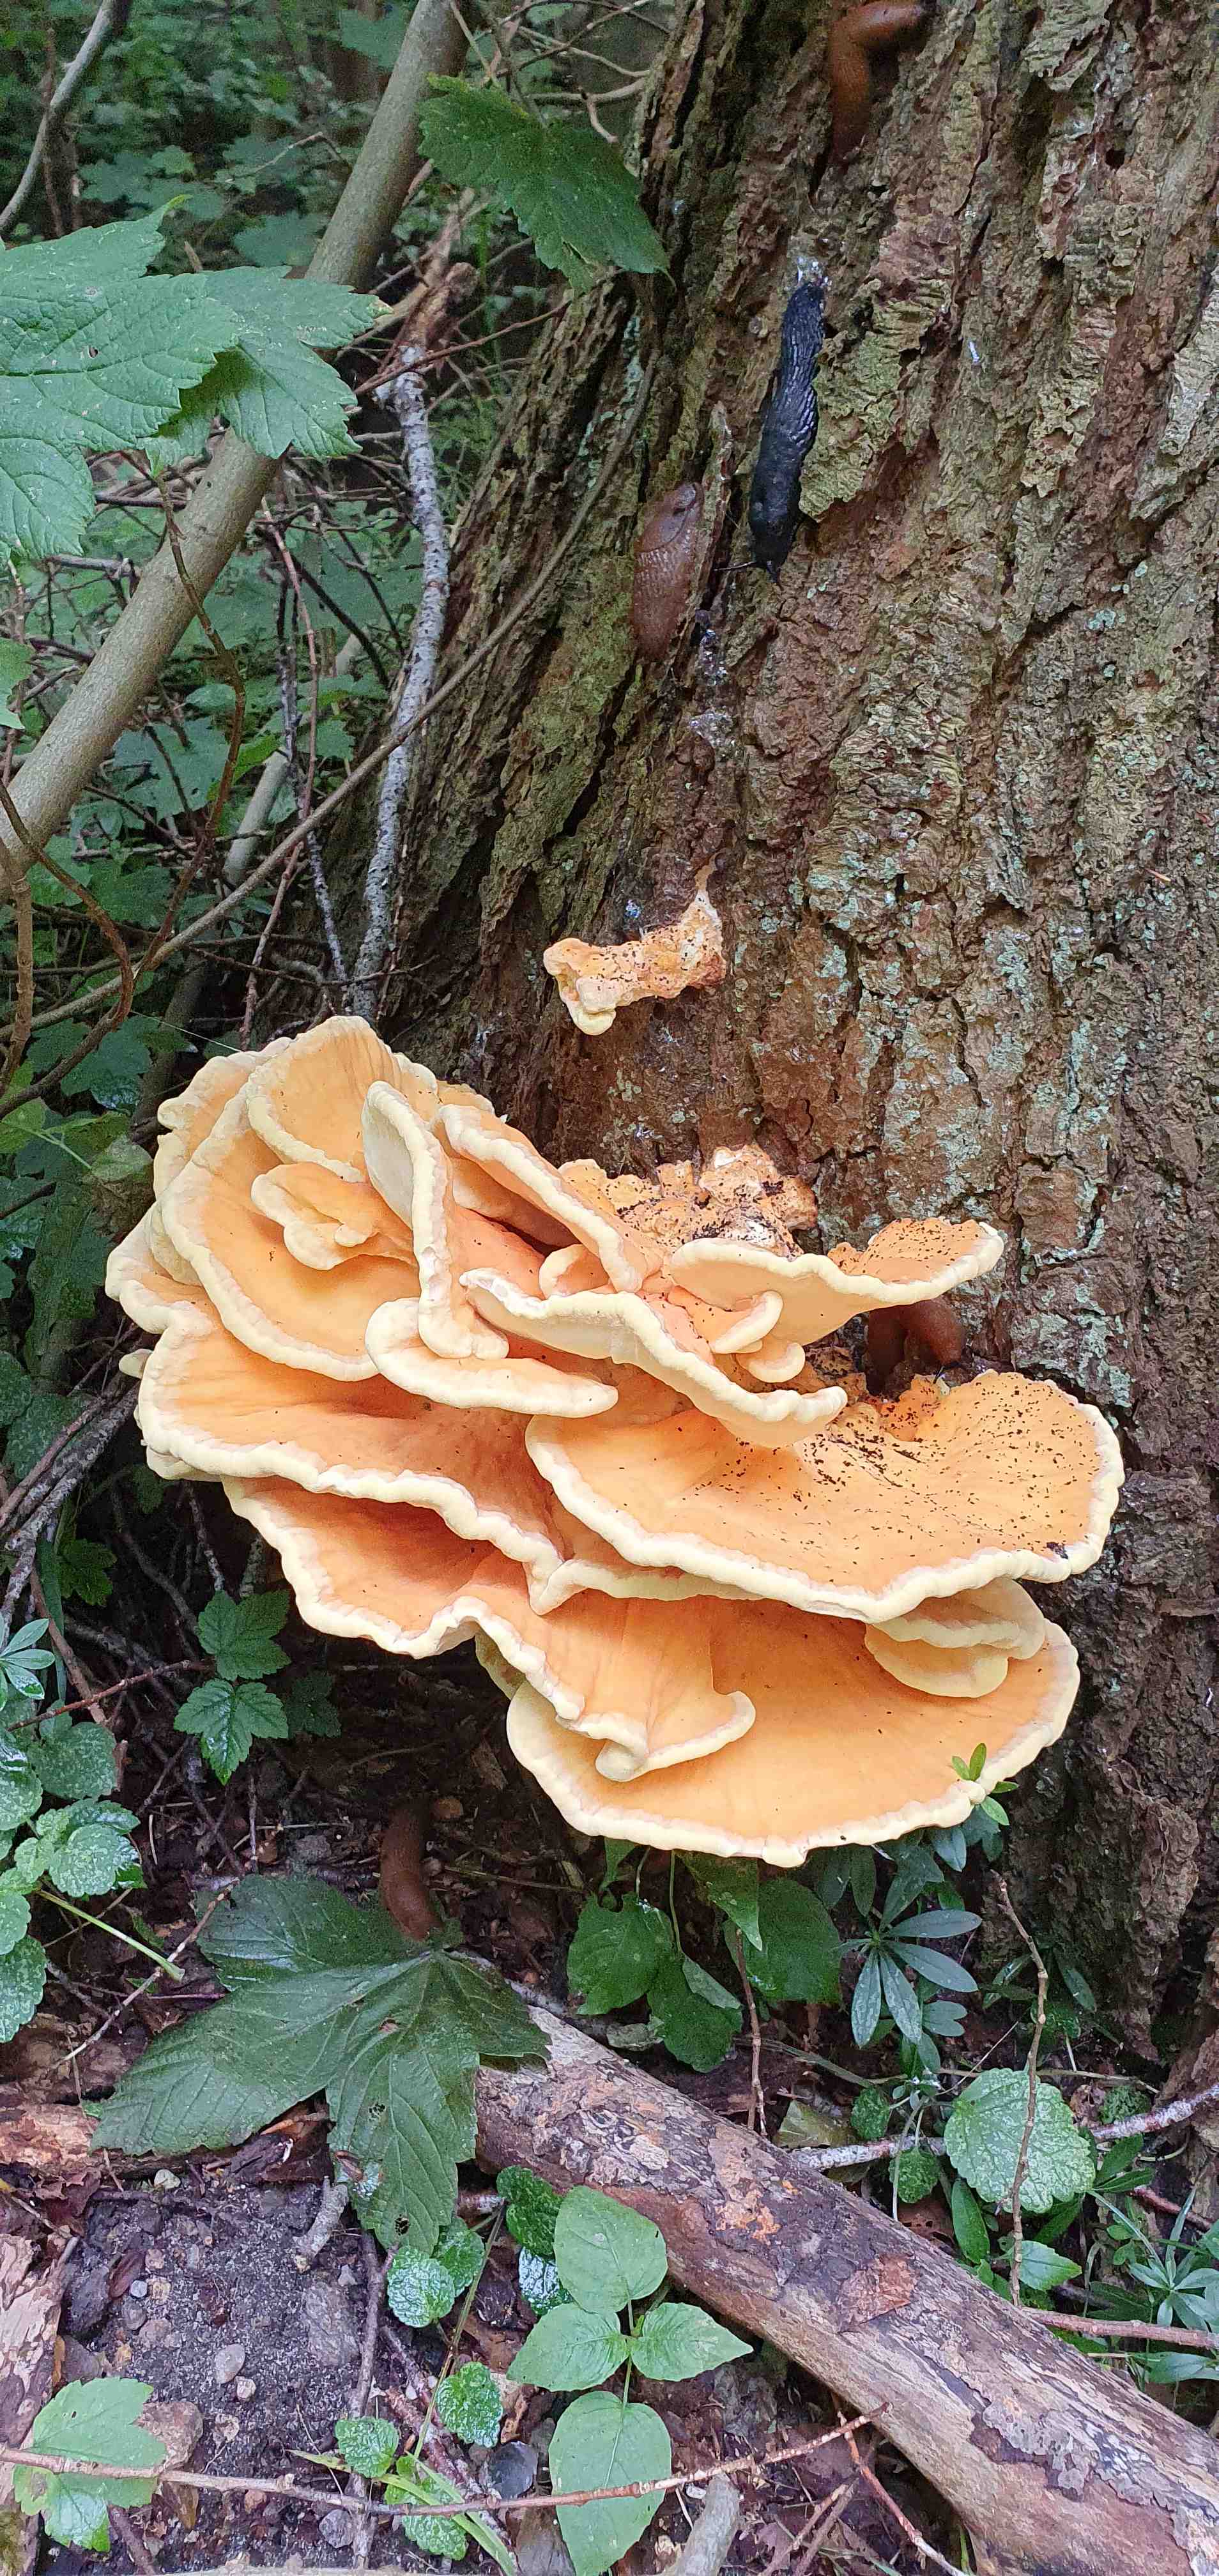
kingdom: Fungi
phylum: Basidiomycota
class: Agaricomycetes
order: Polyporales
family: Laetiporaceae
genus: Laetiporus
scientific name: Laetiporus sulphureus
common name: svovlporesvamp
